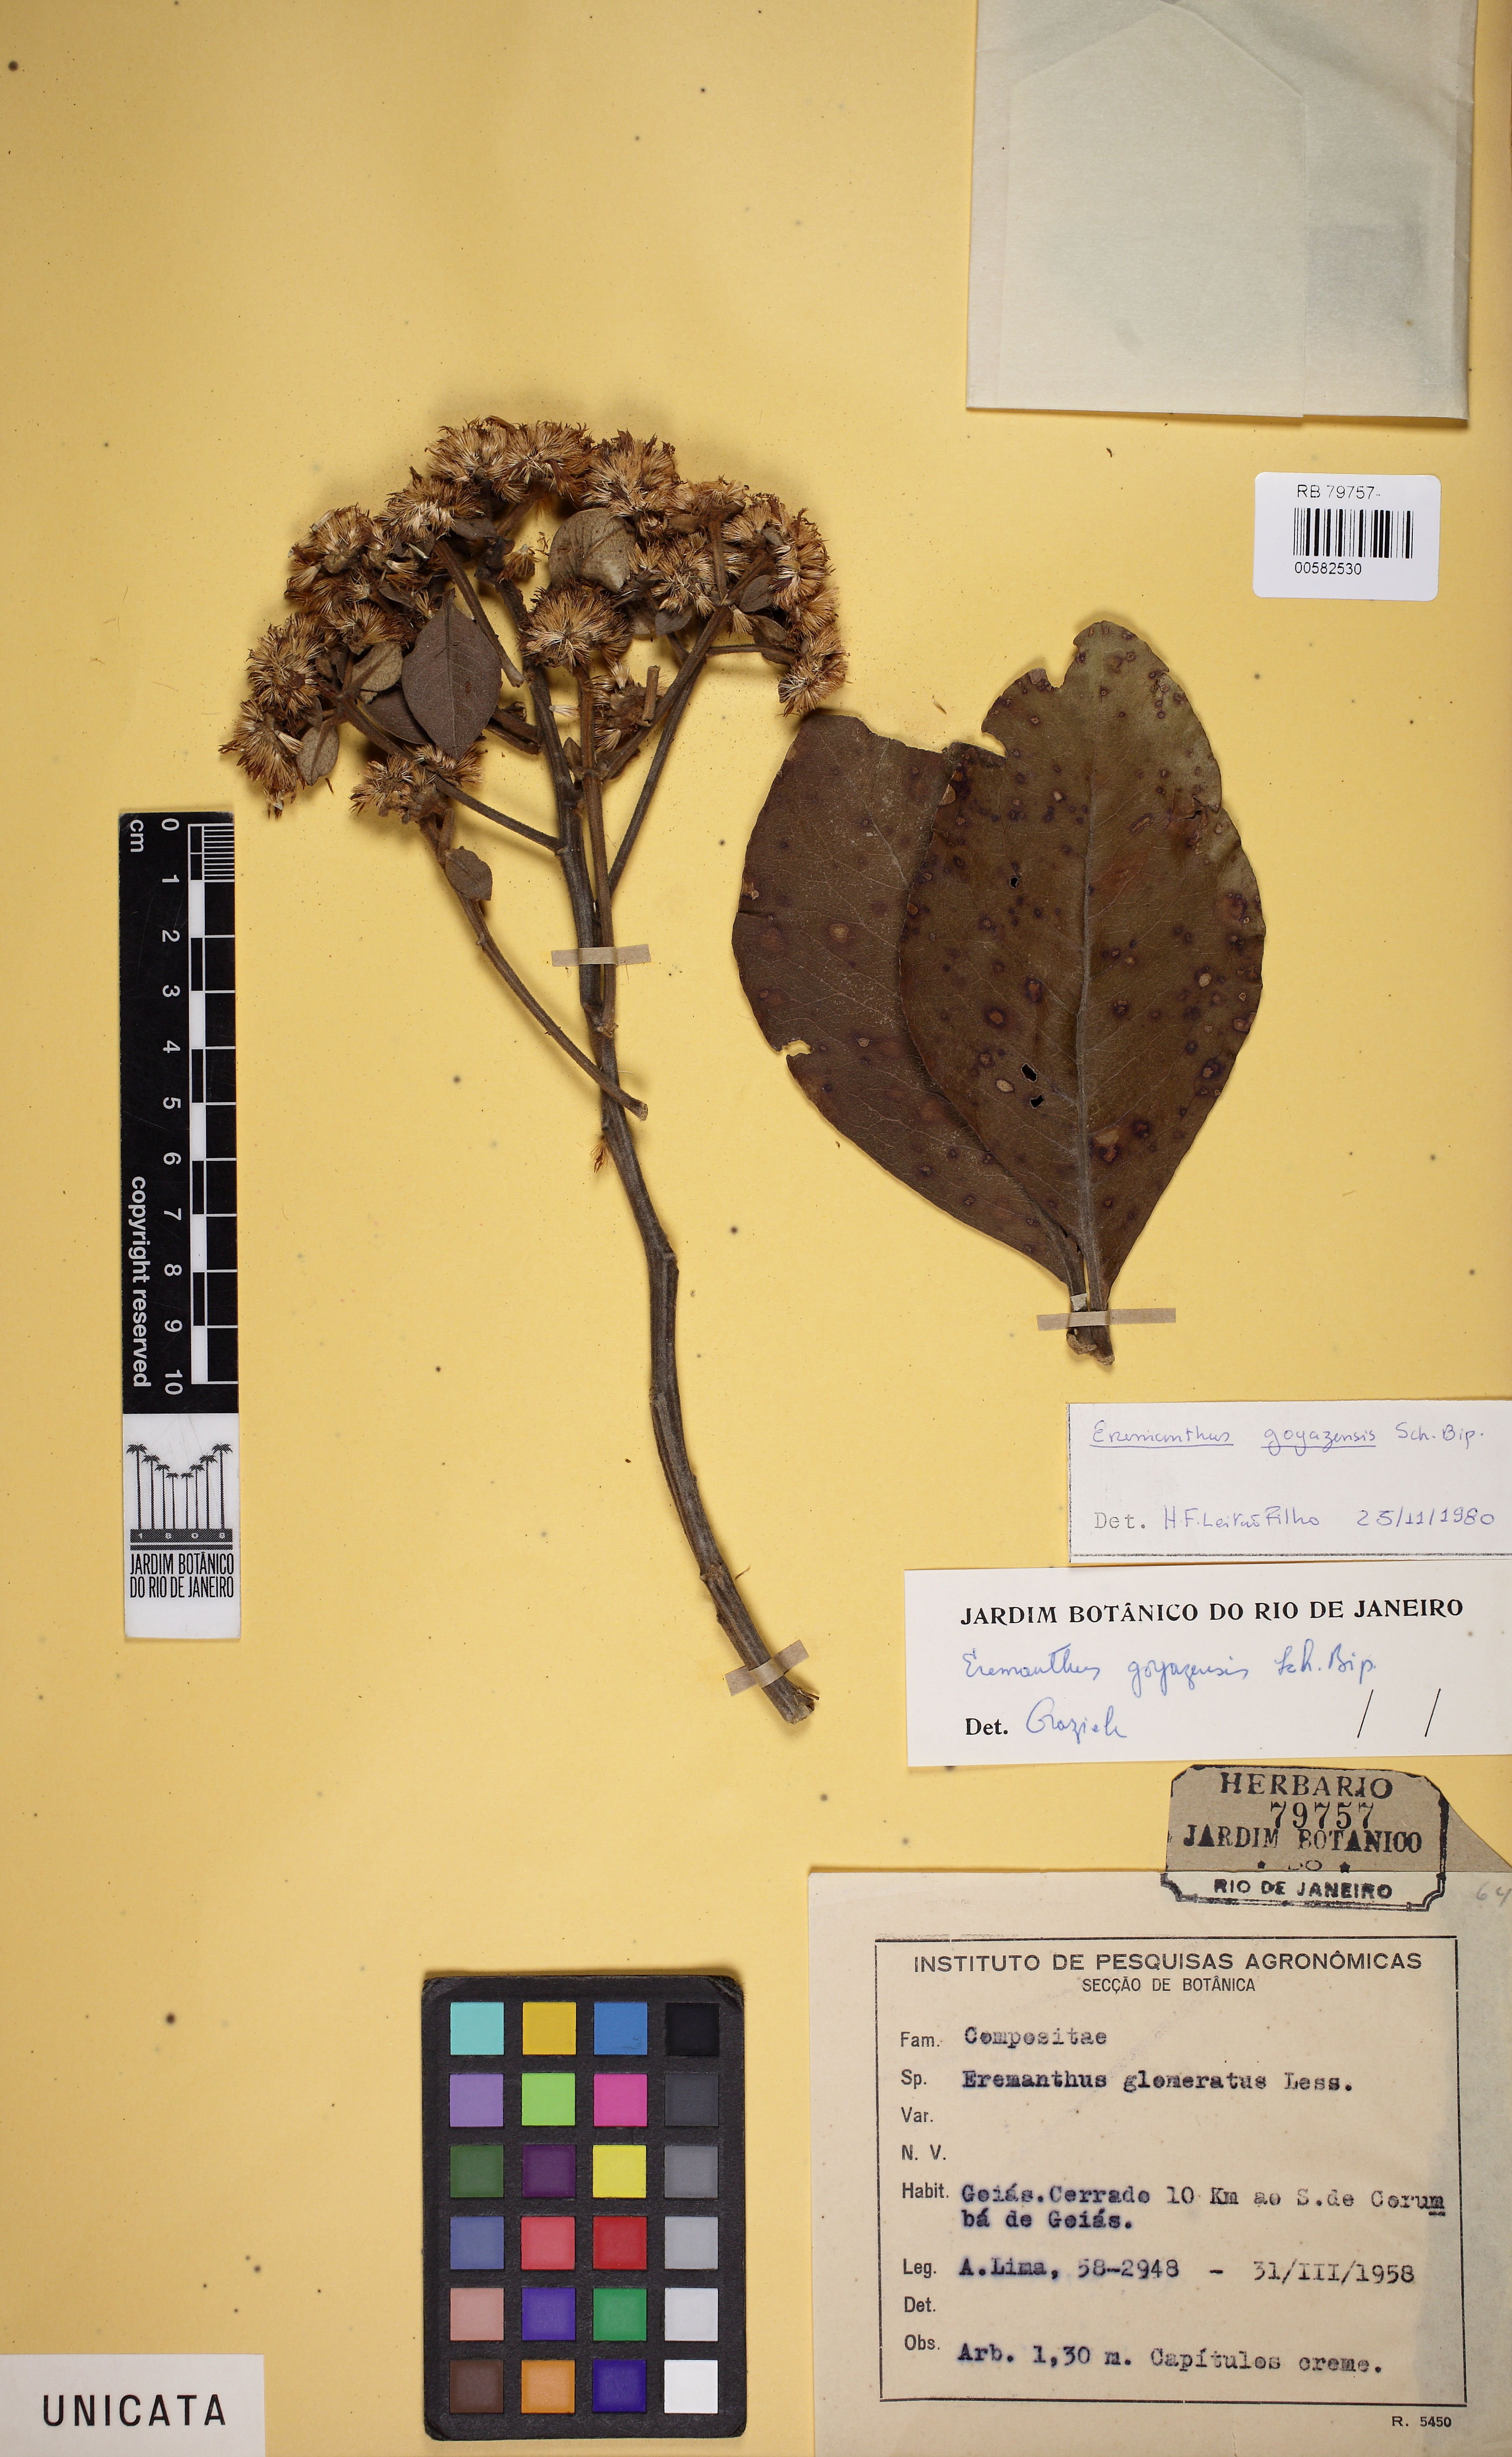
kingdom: Plantae
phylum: Tracheophyta
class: Magnoliopsida
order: Asterales
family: Asteraceae
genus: Eremanthus
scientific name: Eremanthus goyazensis
